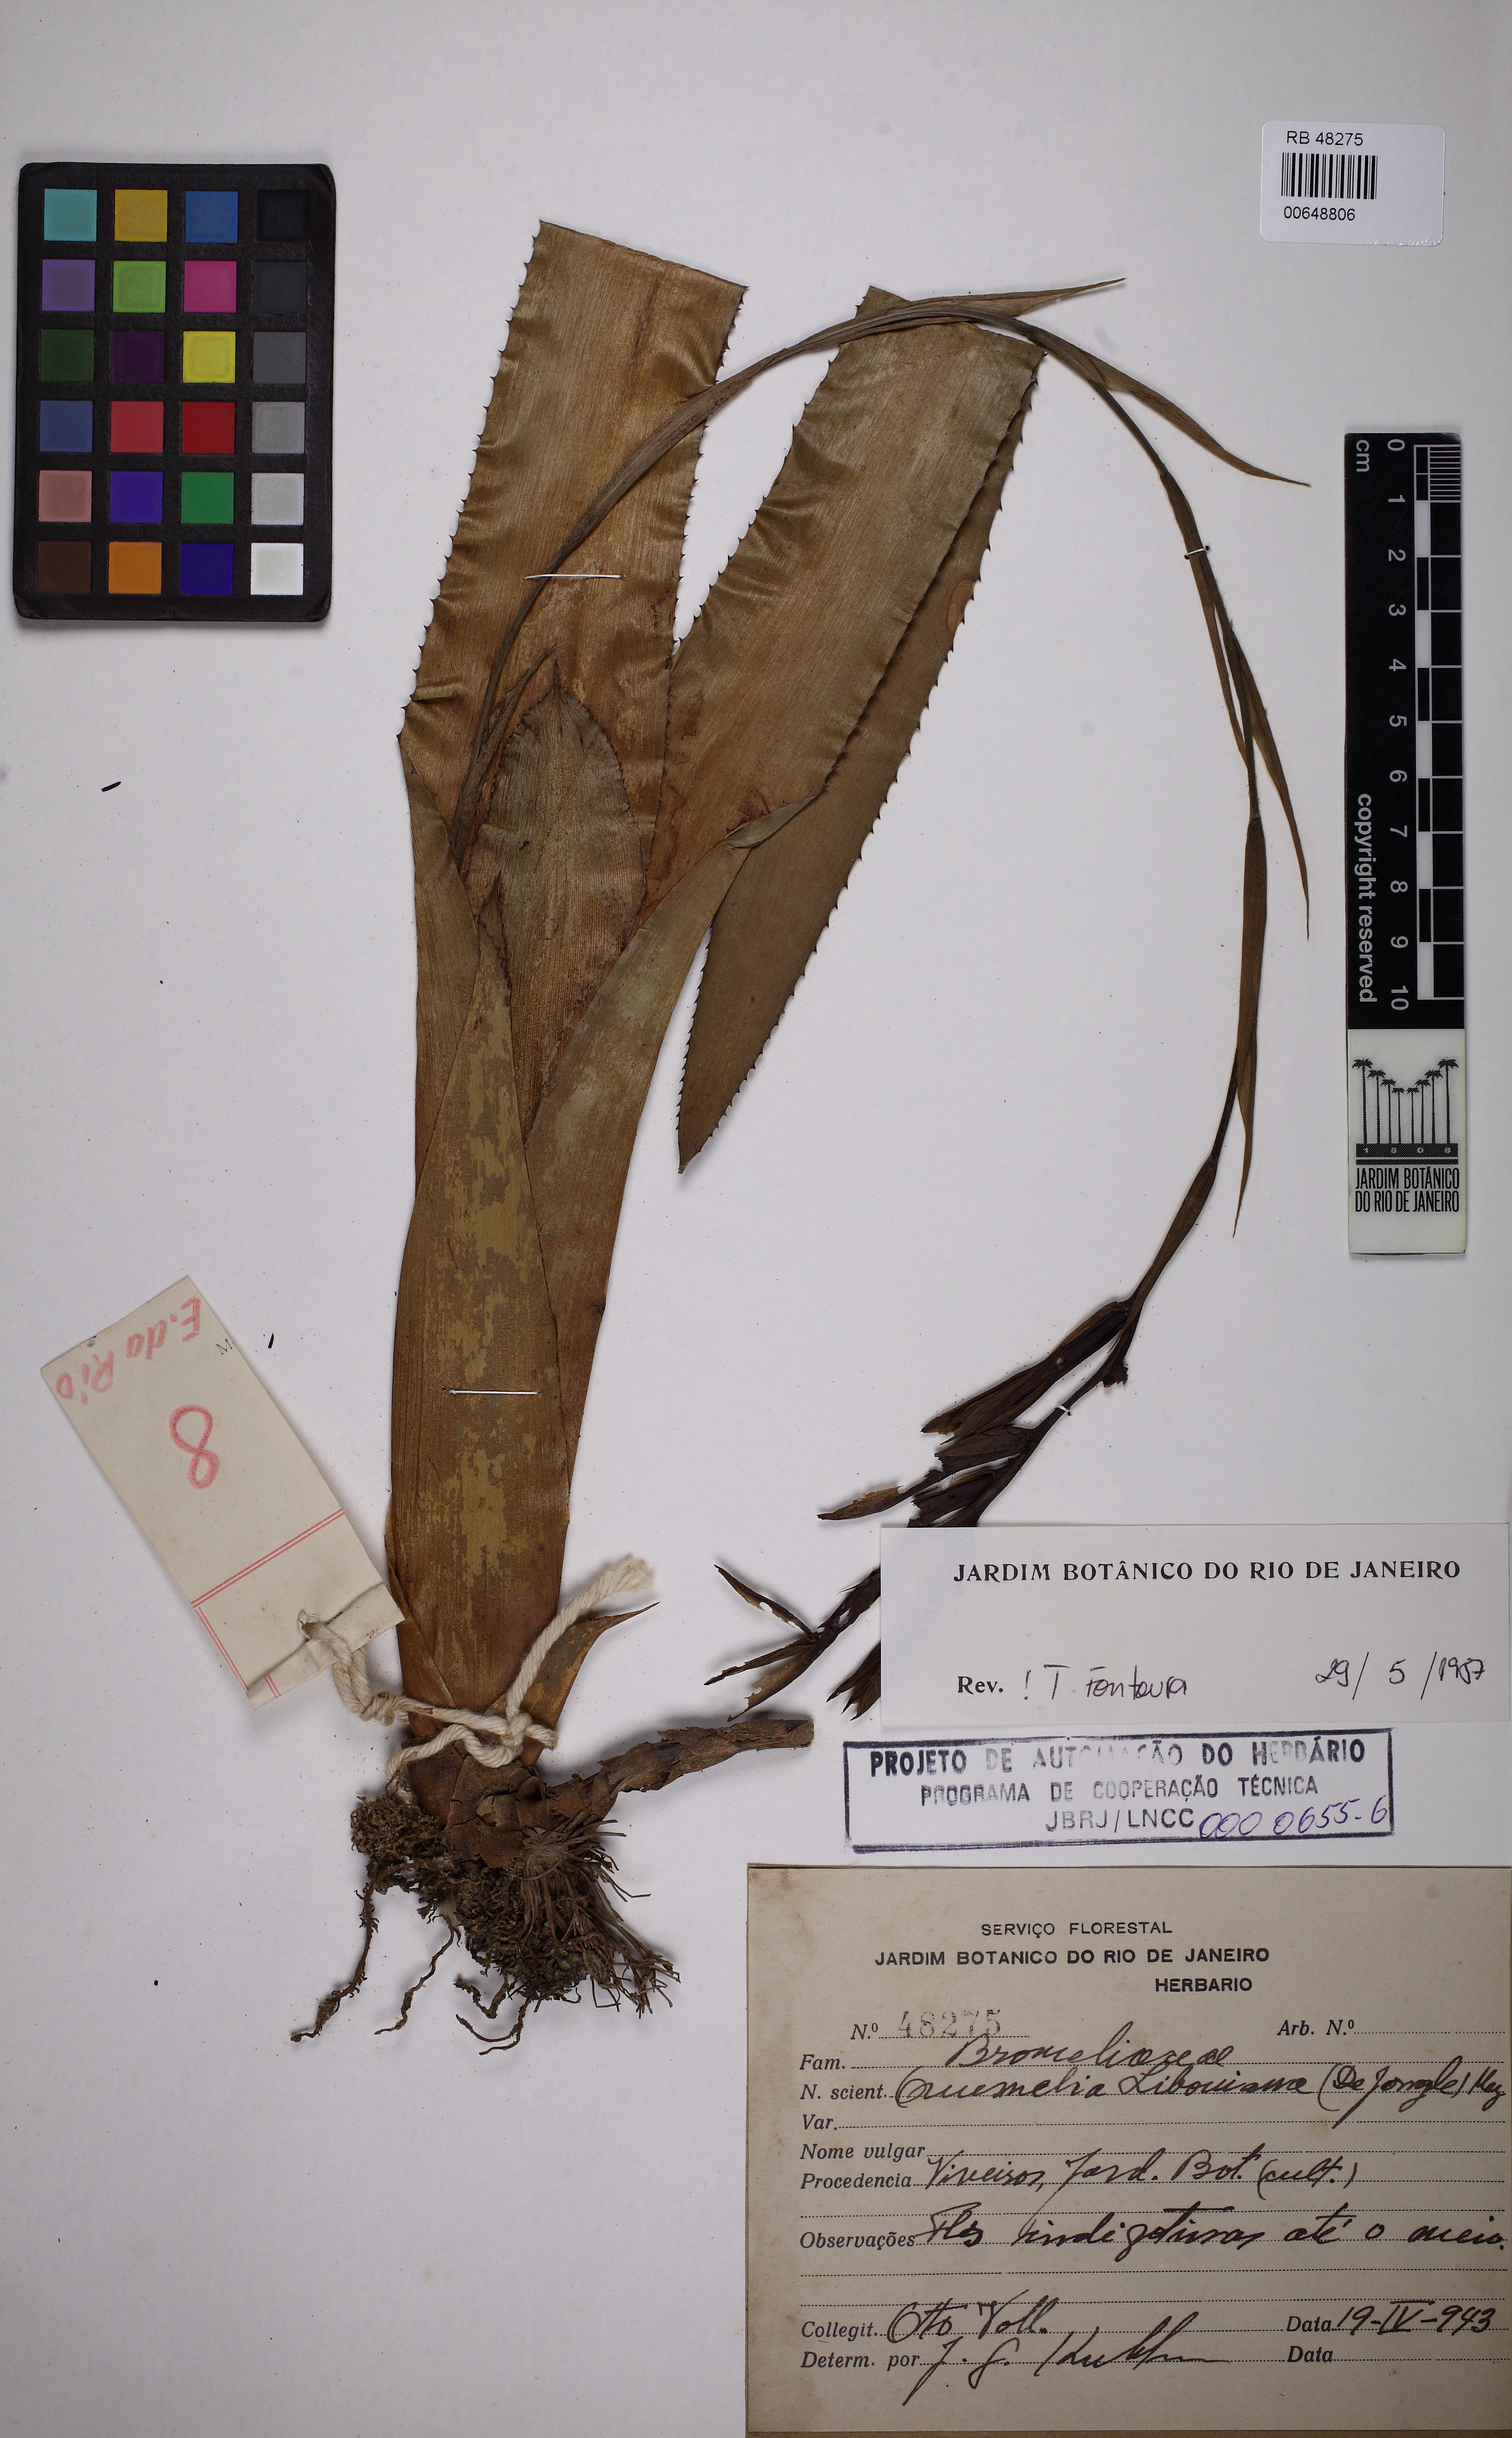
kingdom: Plantae
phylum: Tracheophyta
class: Liliopsida
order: Poales
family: Bromeliaceae
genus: Quesnelia
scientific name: Quesnelia liboniana
